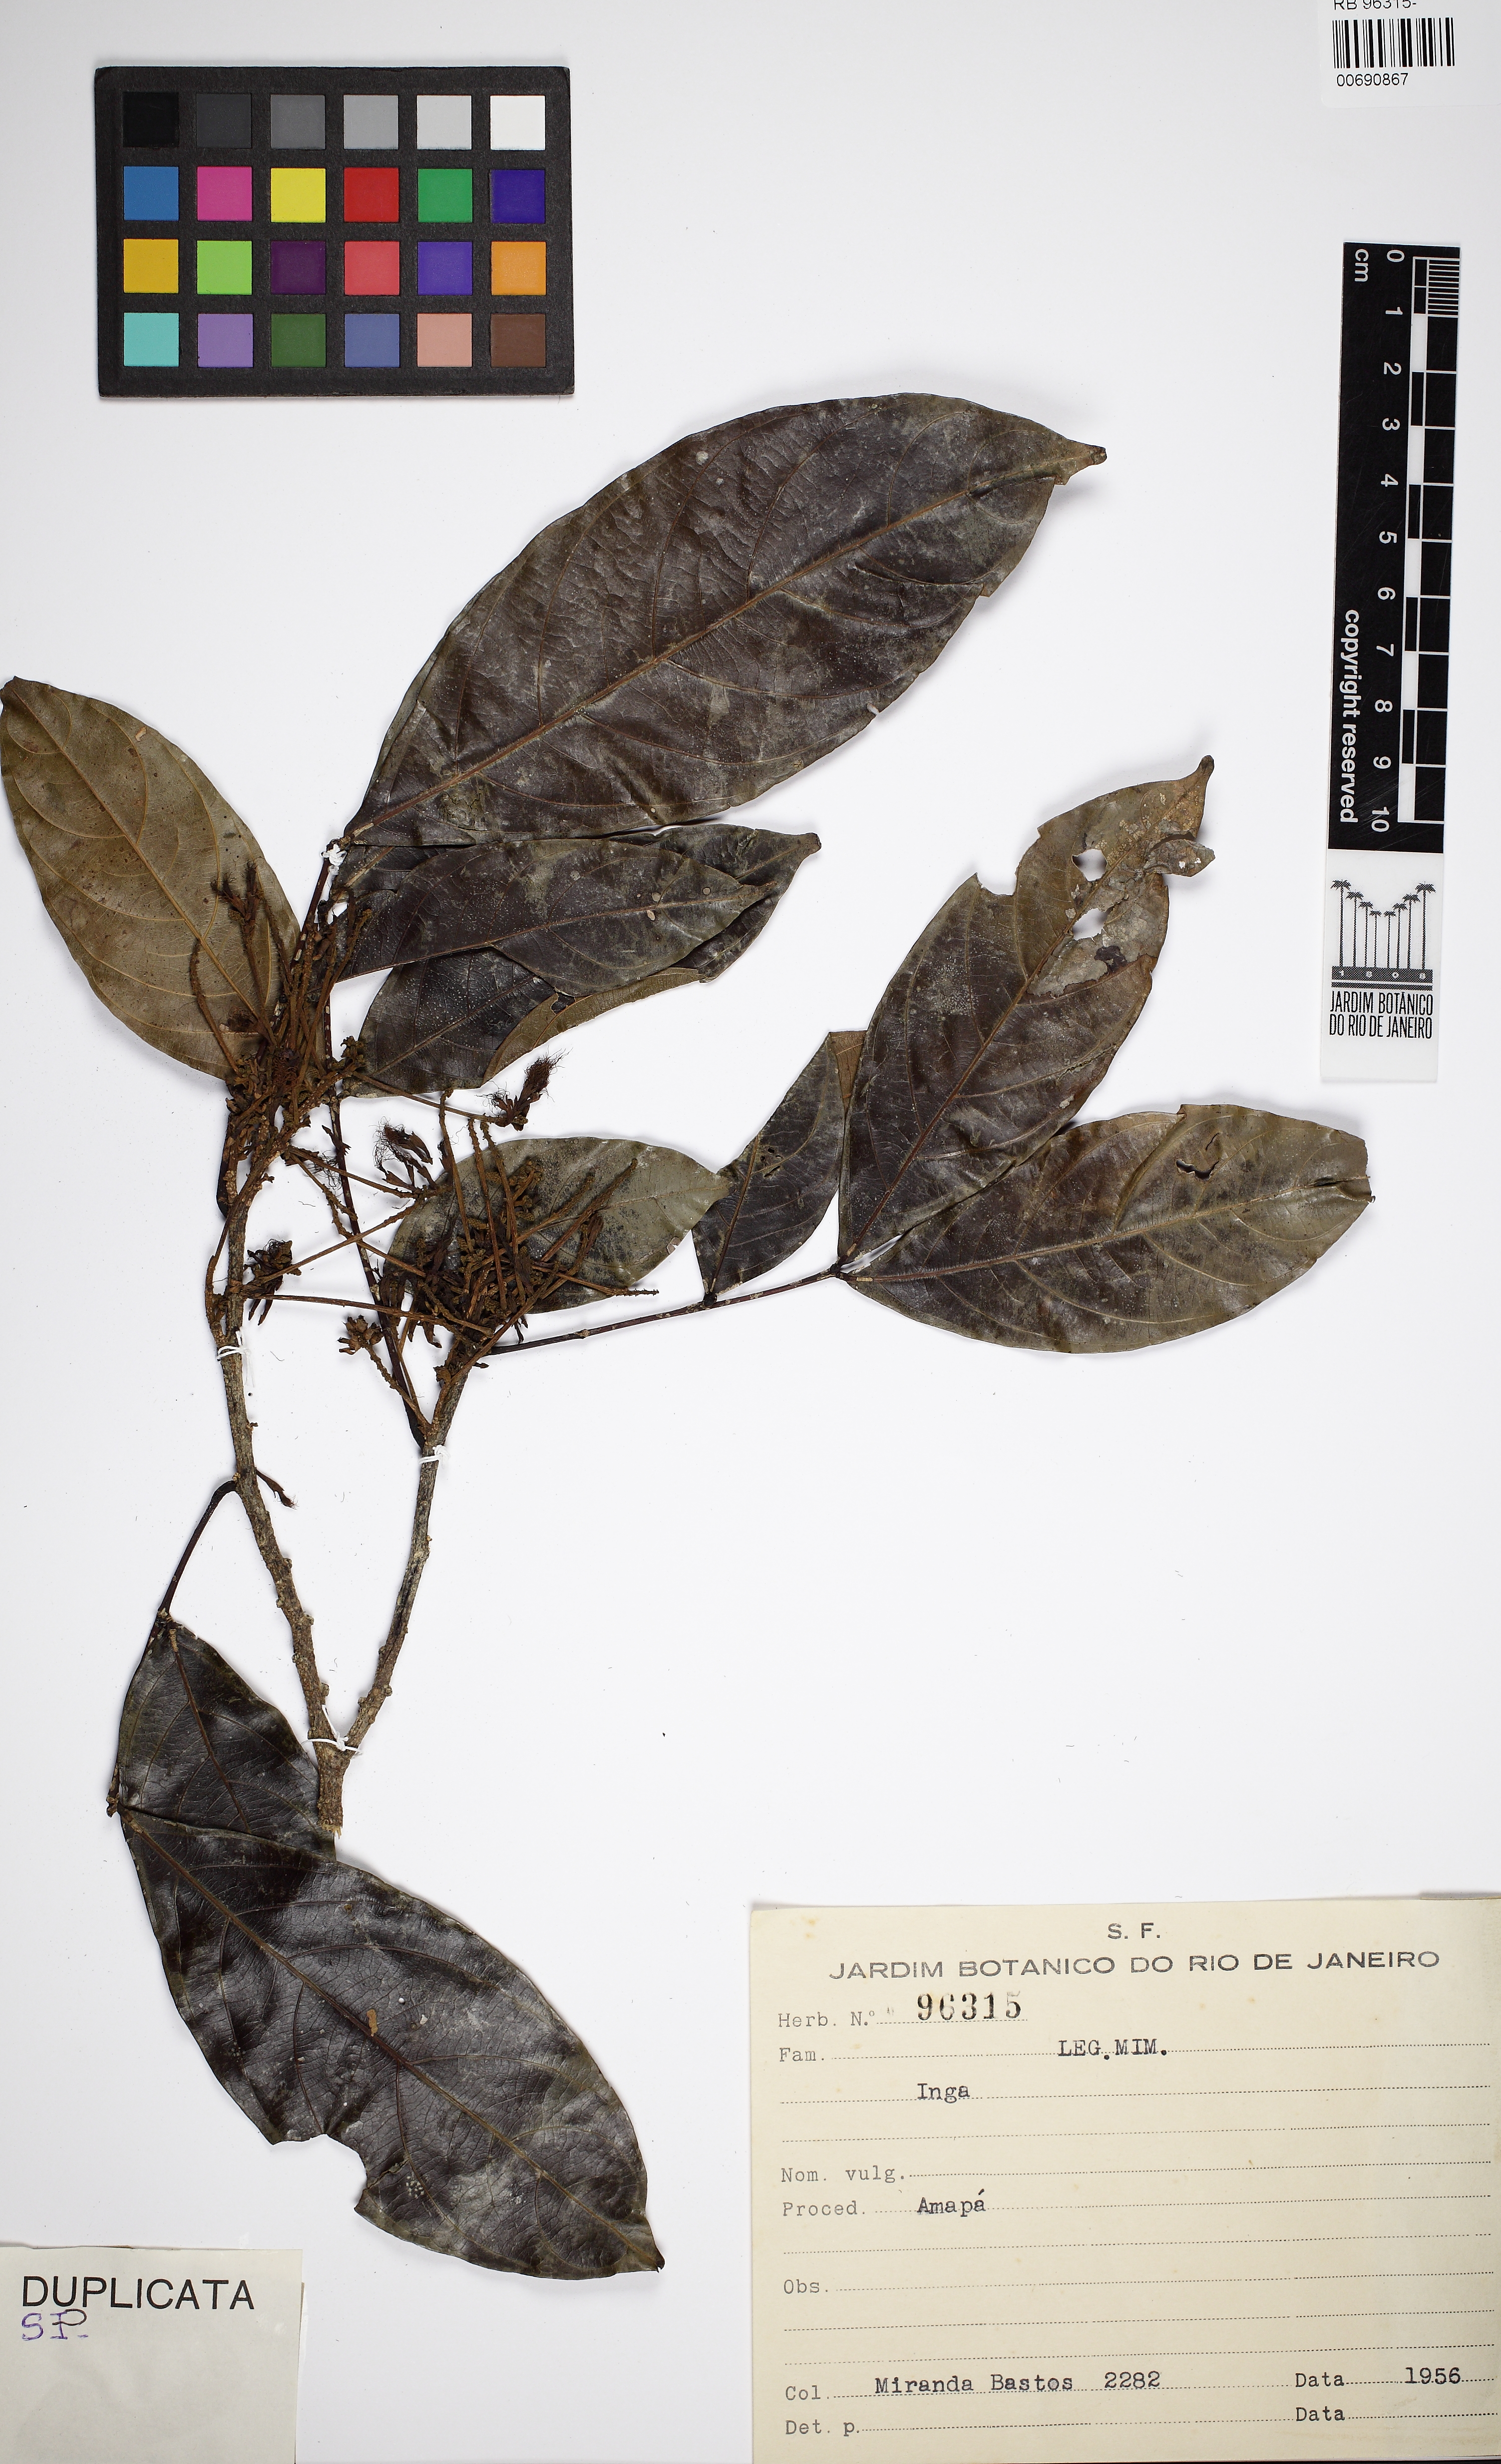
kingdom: Plantae
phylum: Tracheophyta
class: Magnoliopsida
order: Fabales
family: Fabaceae
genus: Inga
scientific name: Inga pezizifera
